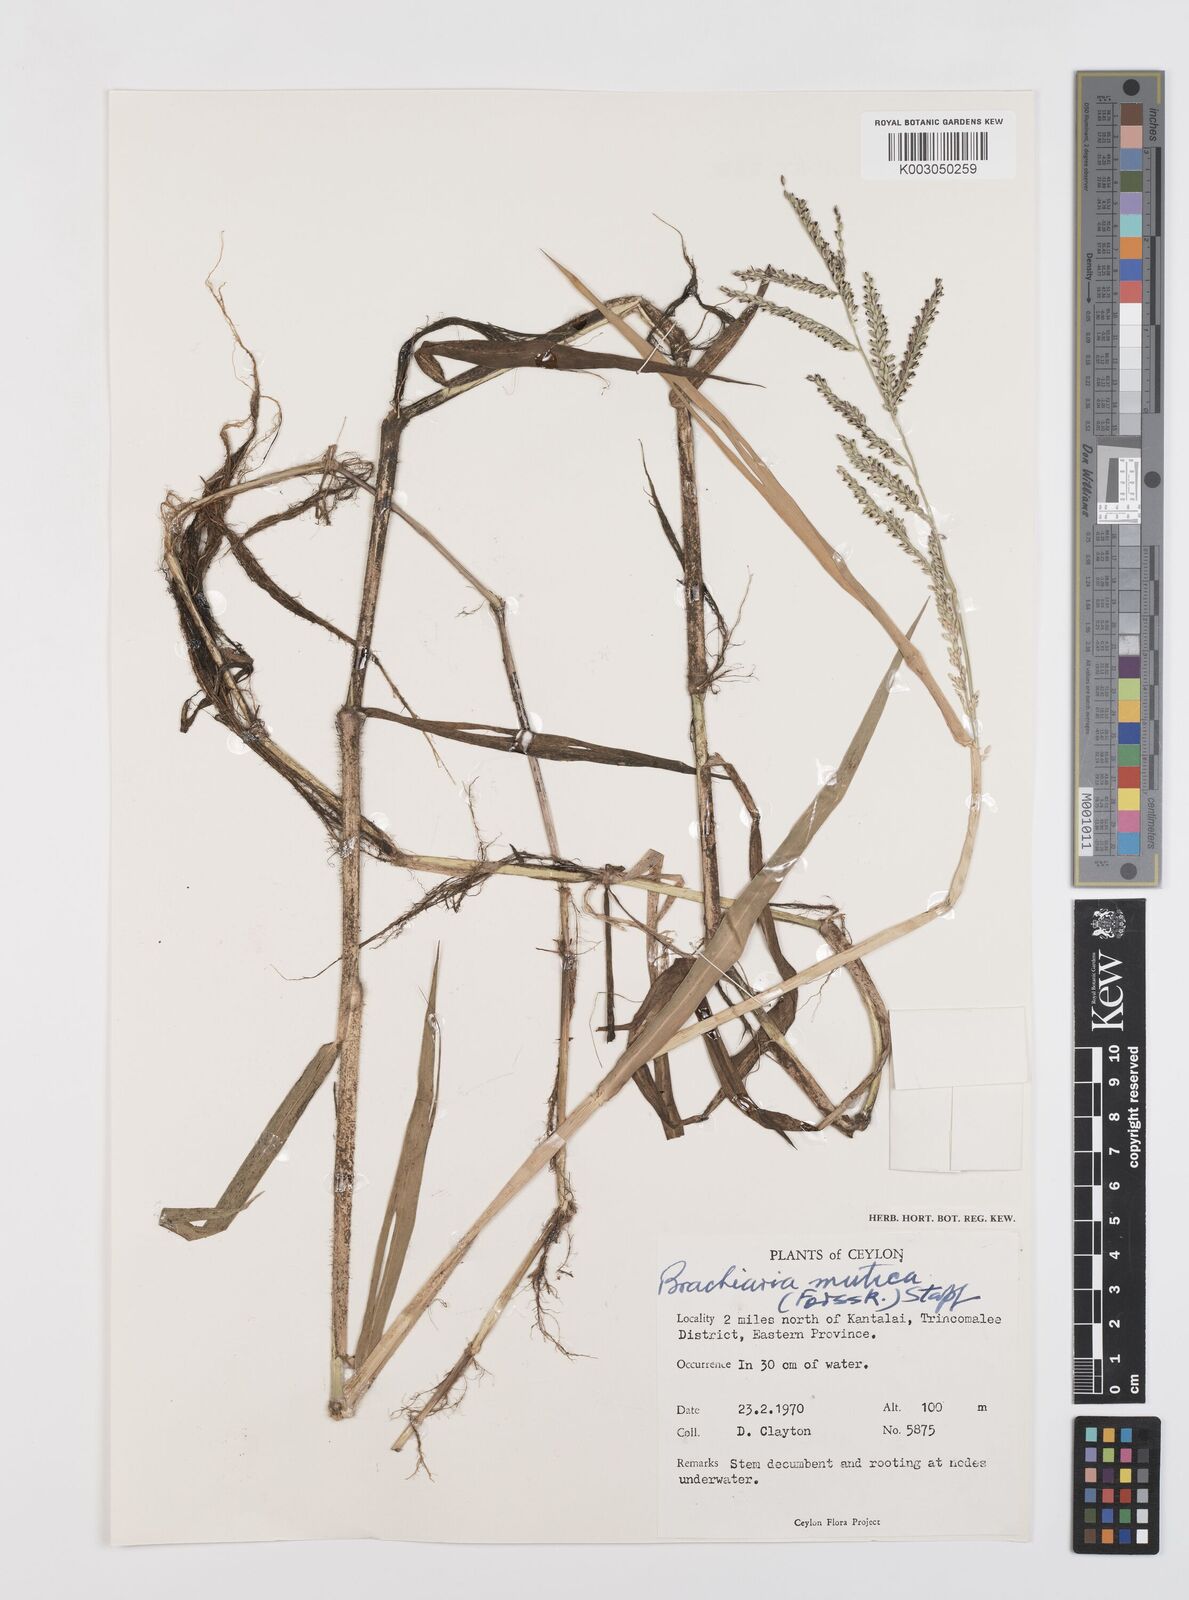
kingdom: Plantae
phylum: Tracheophyta
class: Liliopsida
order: Poales
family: Poaceae
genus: Urochloa
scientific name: Urochloa mutica
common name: Para grass
